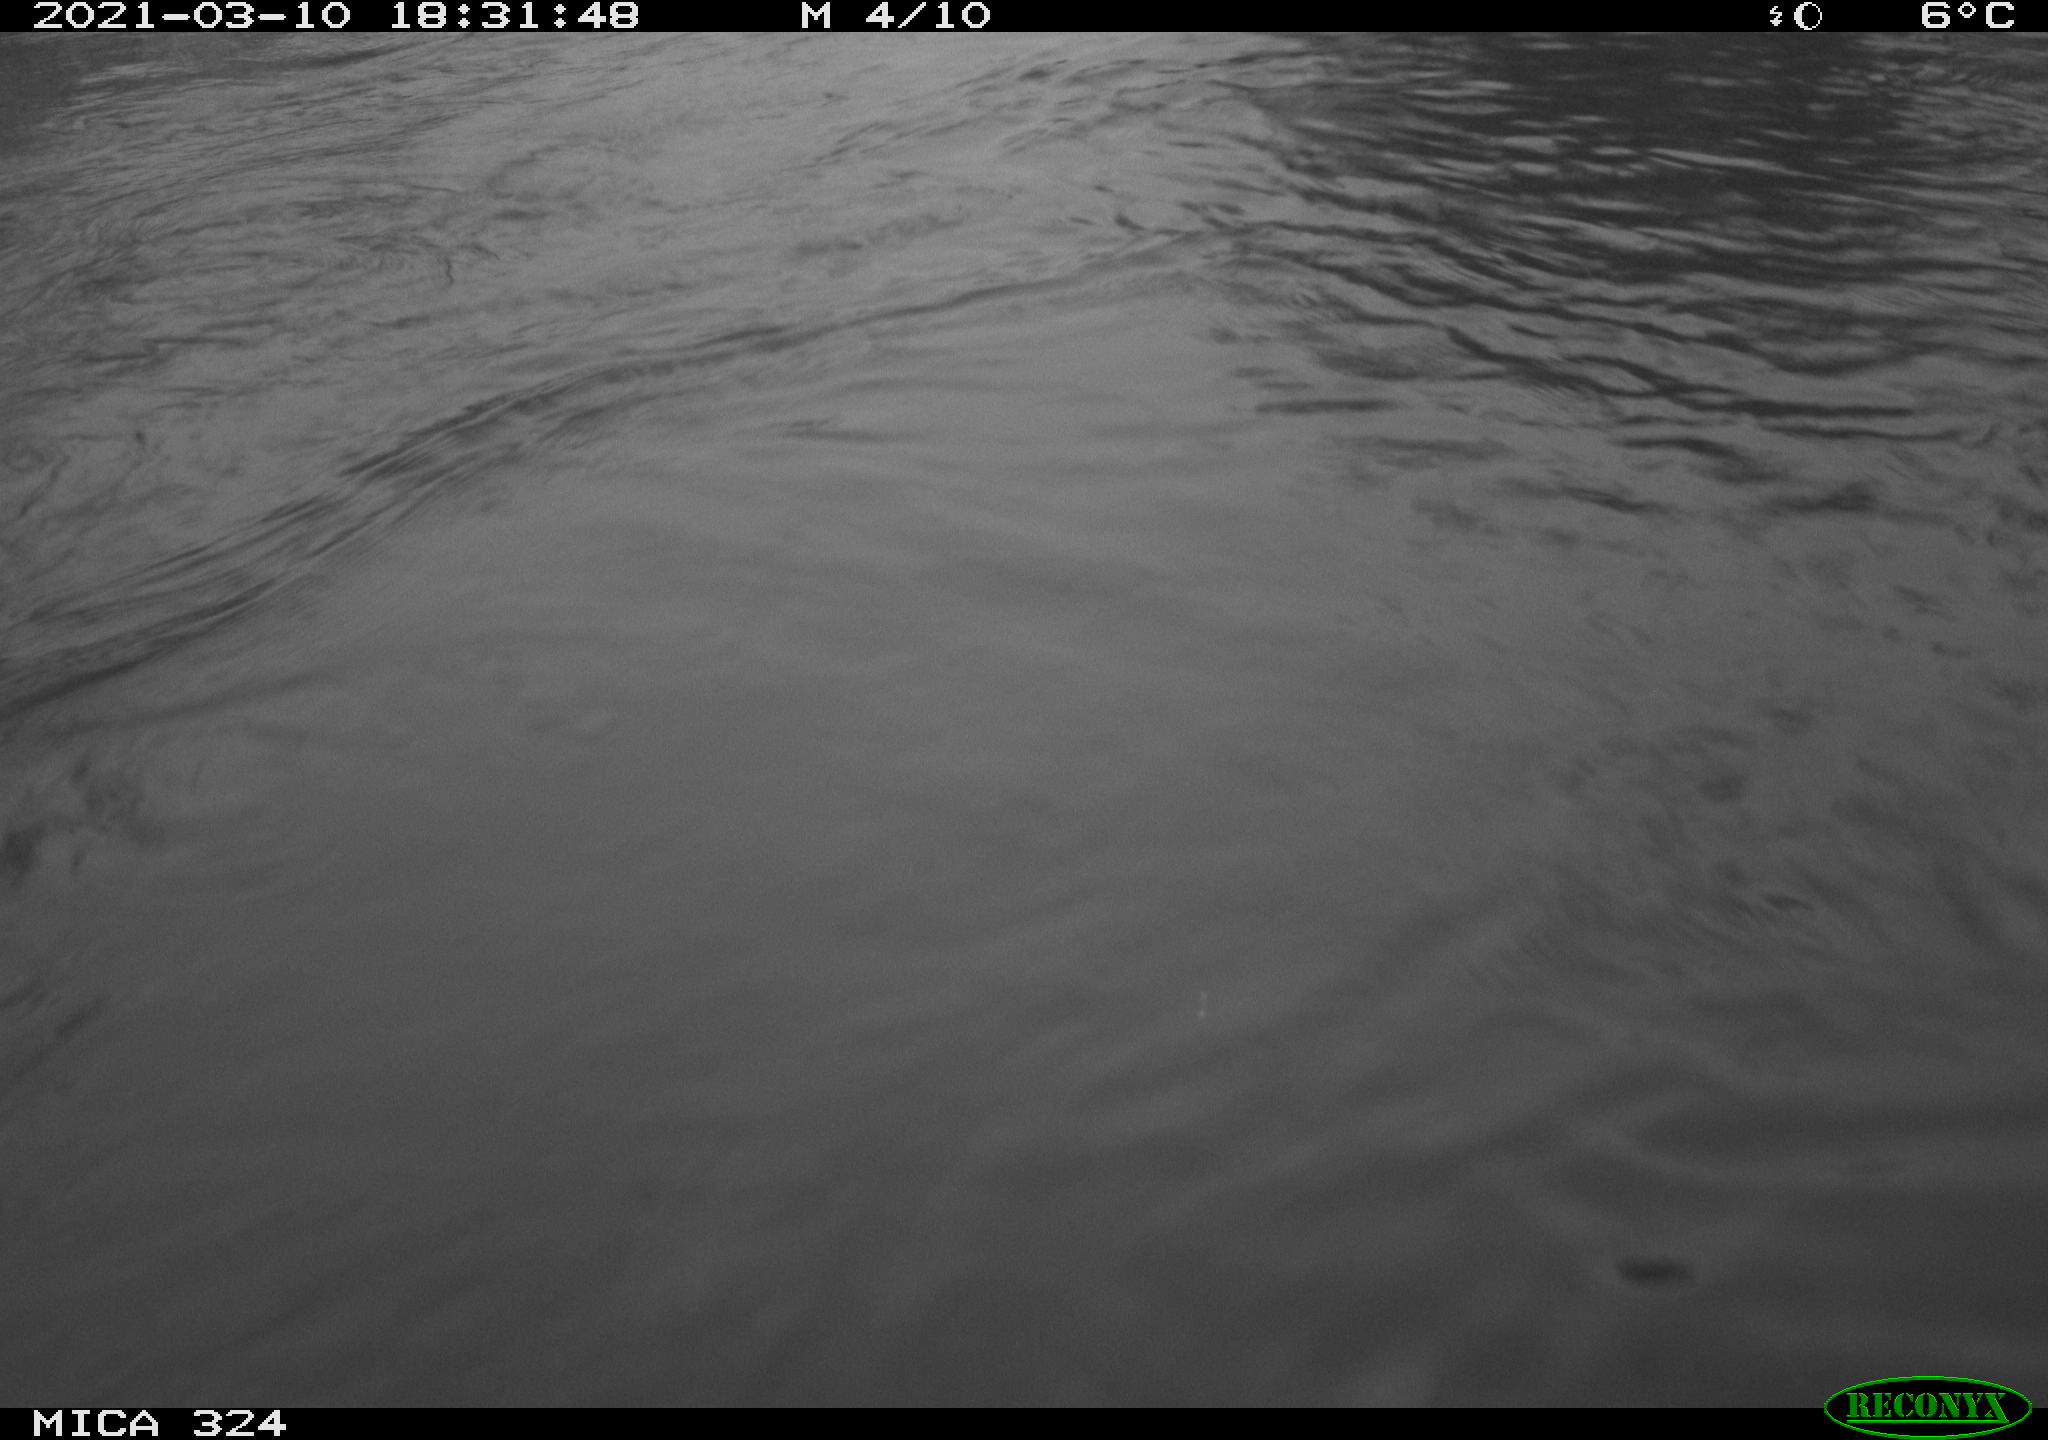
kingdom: Animalia
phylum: Chordata
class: Aves
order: Anseriformes
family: Anatidae
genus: Anas
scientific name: Anas platyrhynchos
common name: Mallard
